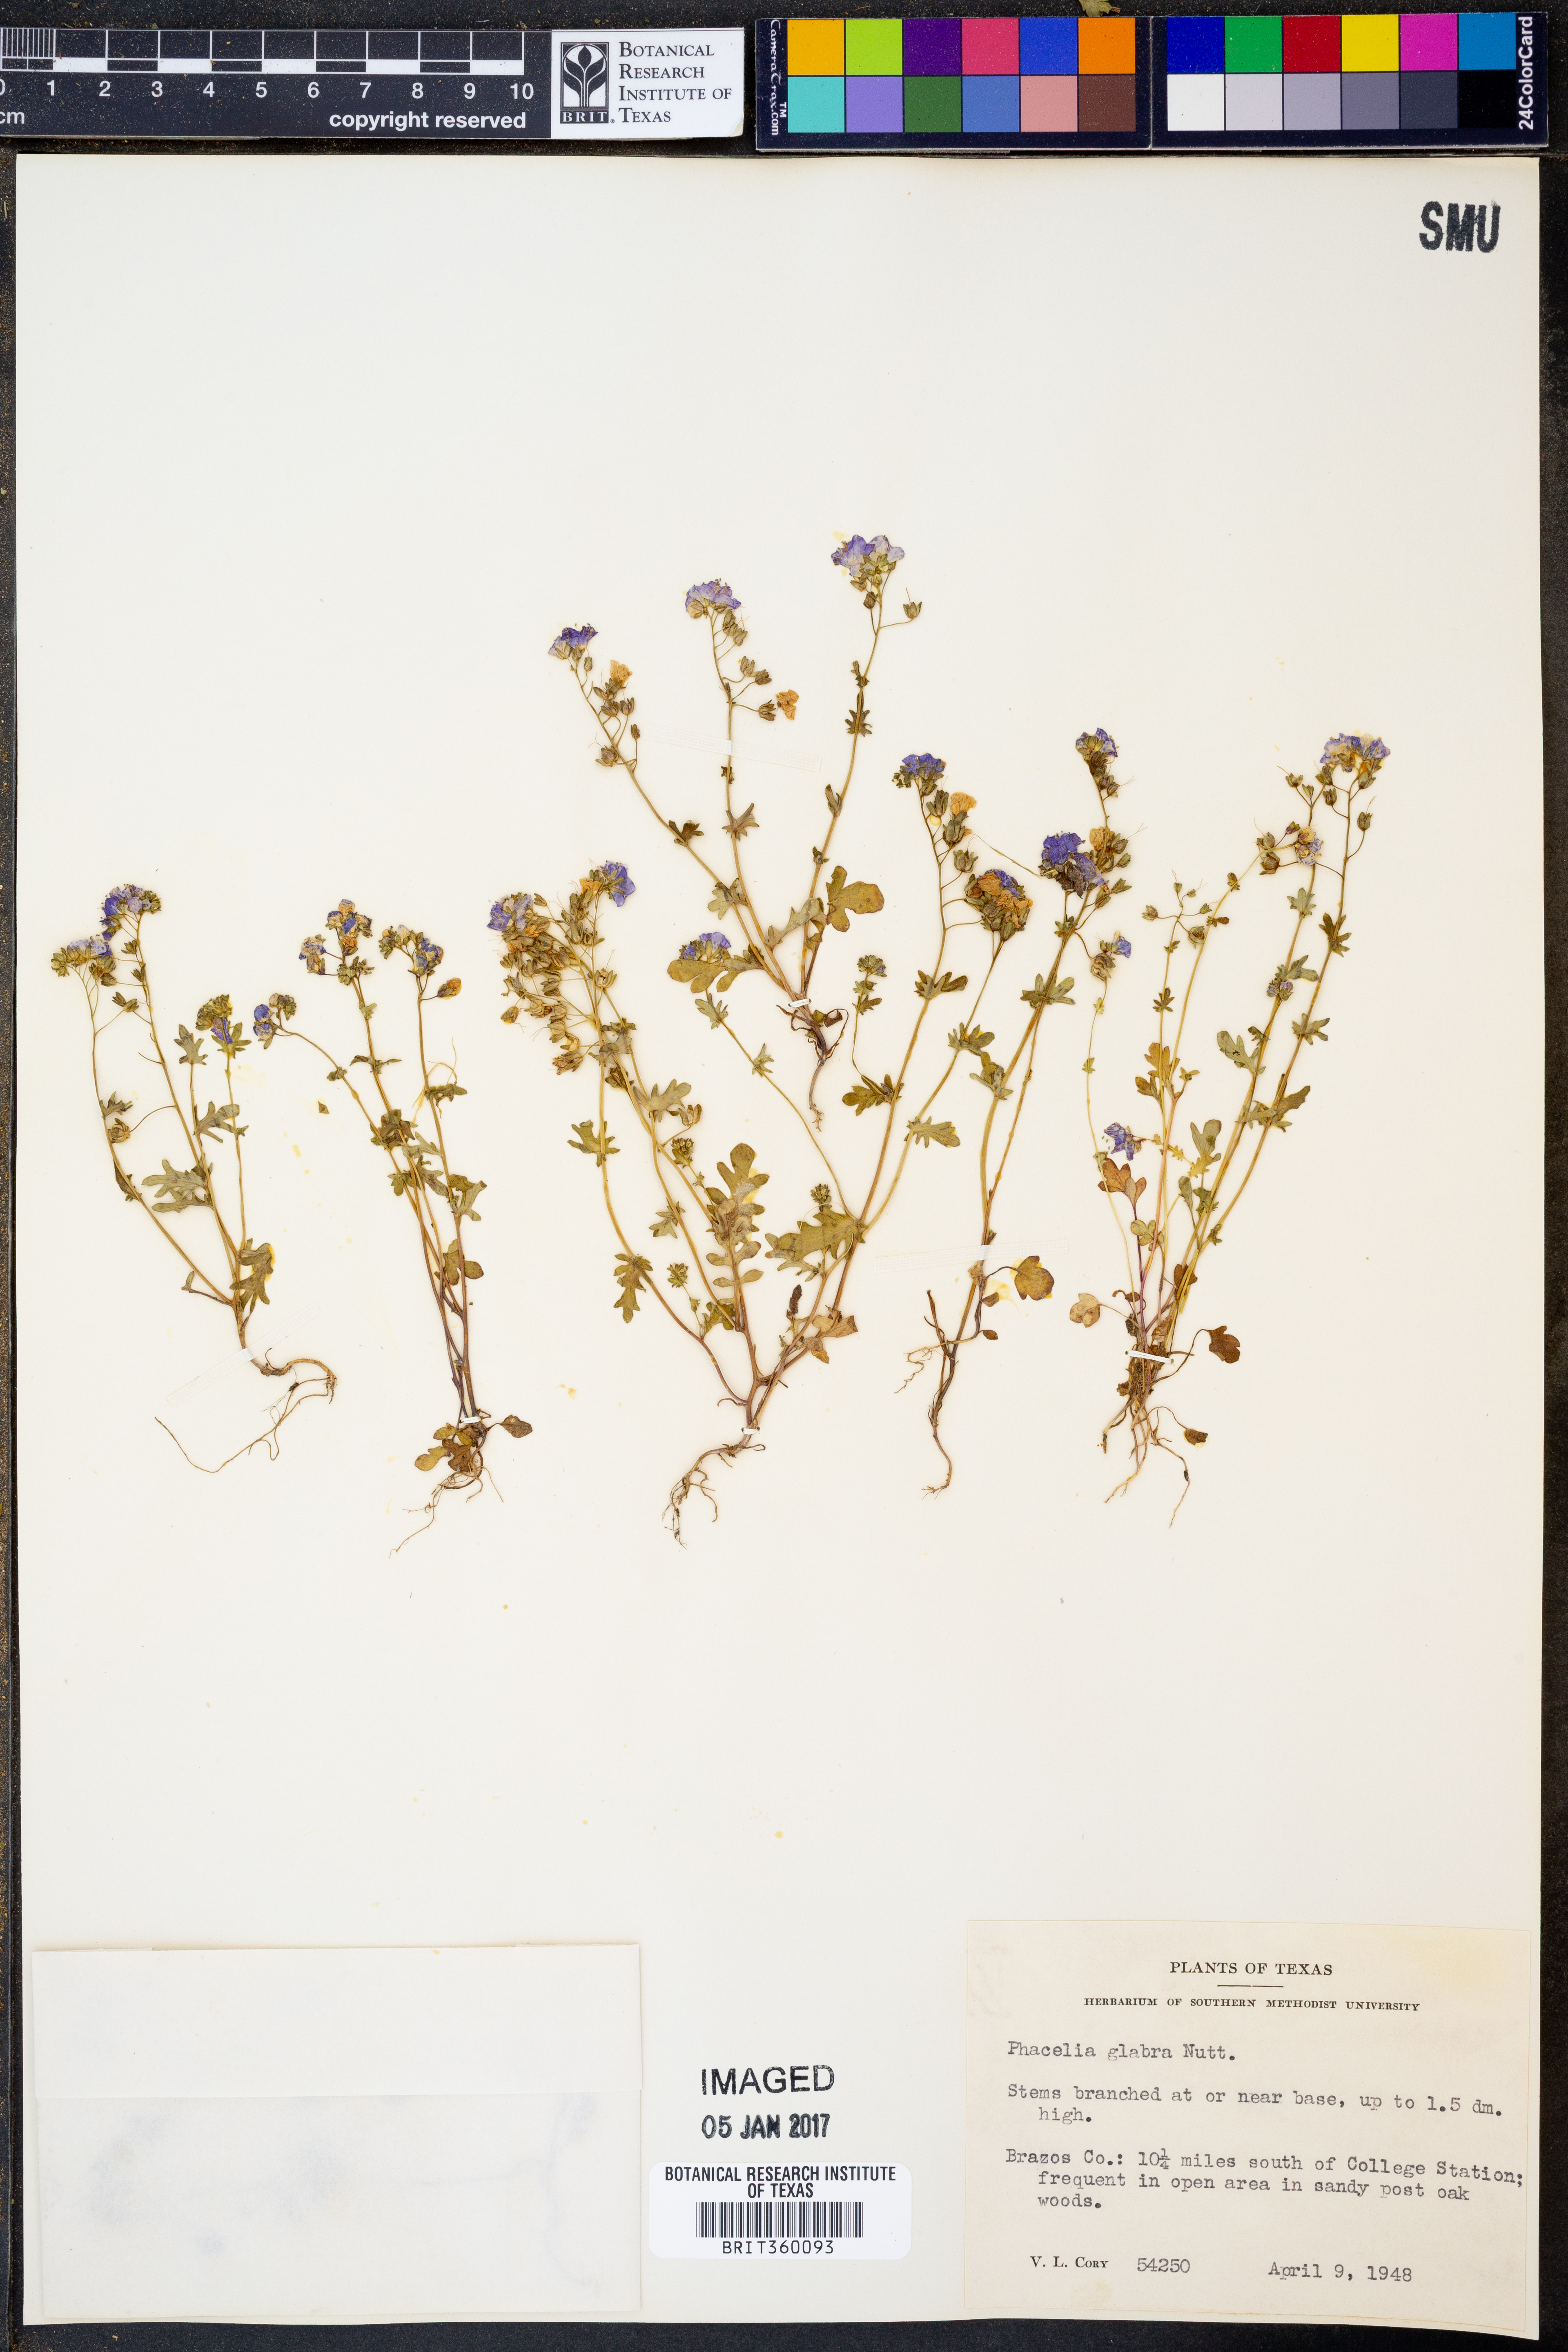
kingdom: Plantae
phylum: Tracheophyta
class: Magnoliopsida
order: Boraginales
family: Hydrophyllaceae
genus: Phacelia
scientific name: Phacelia glabra
